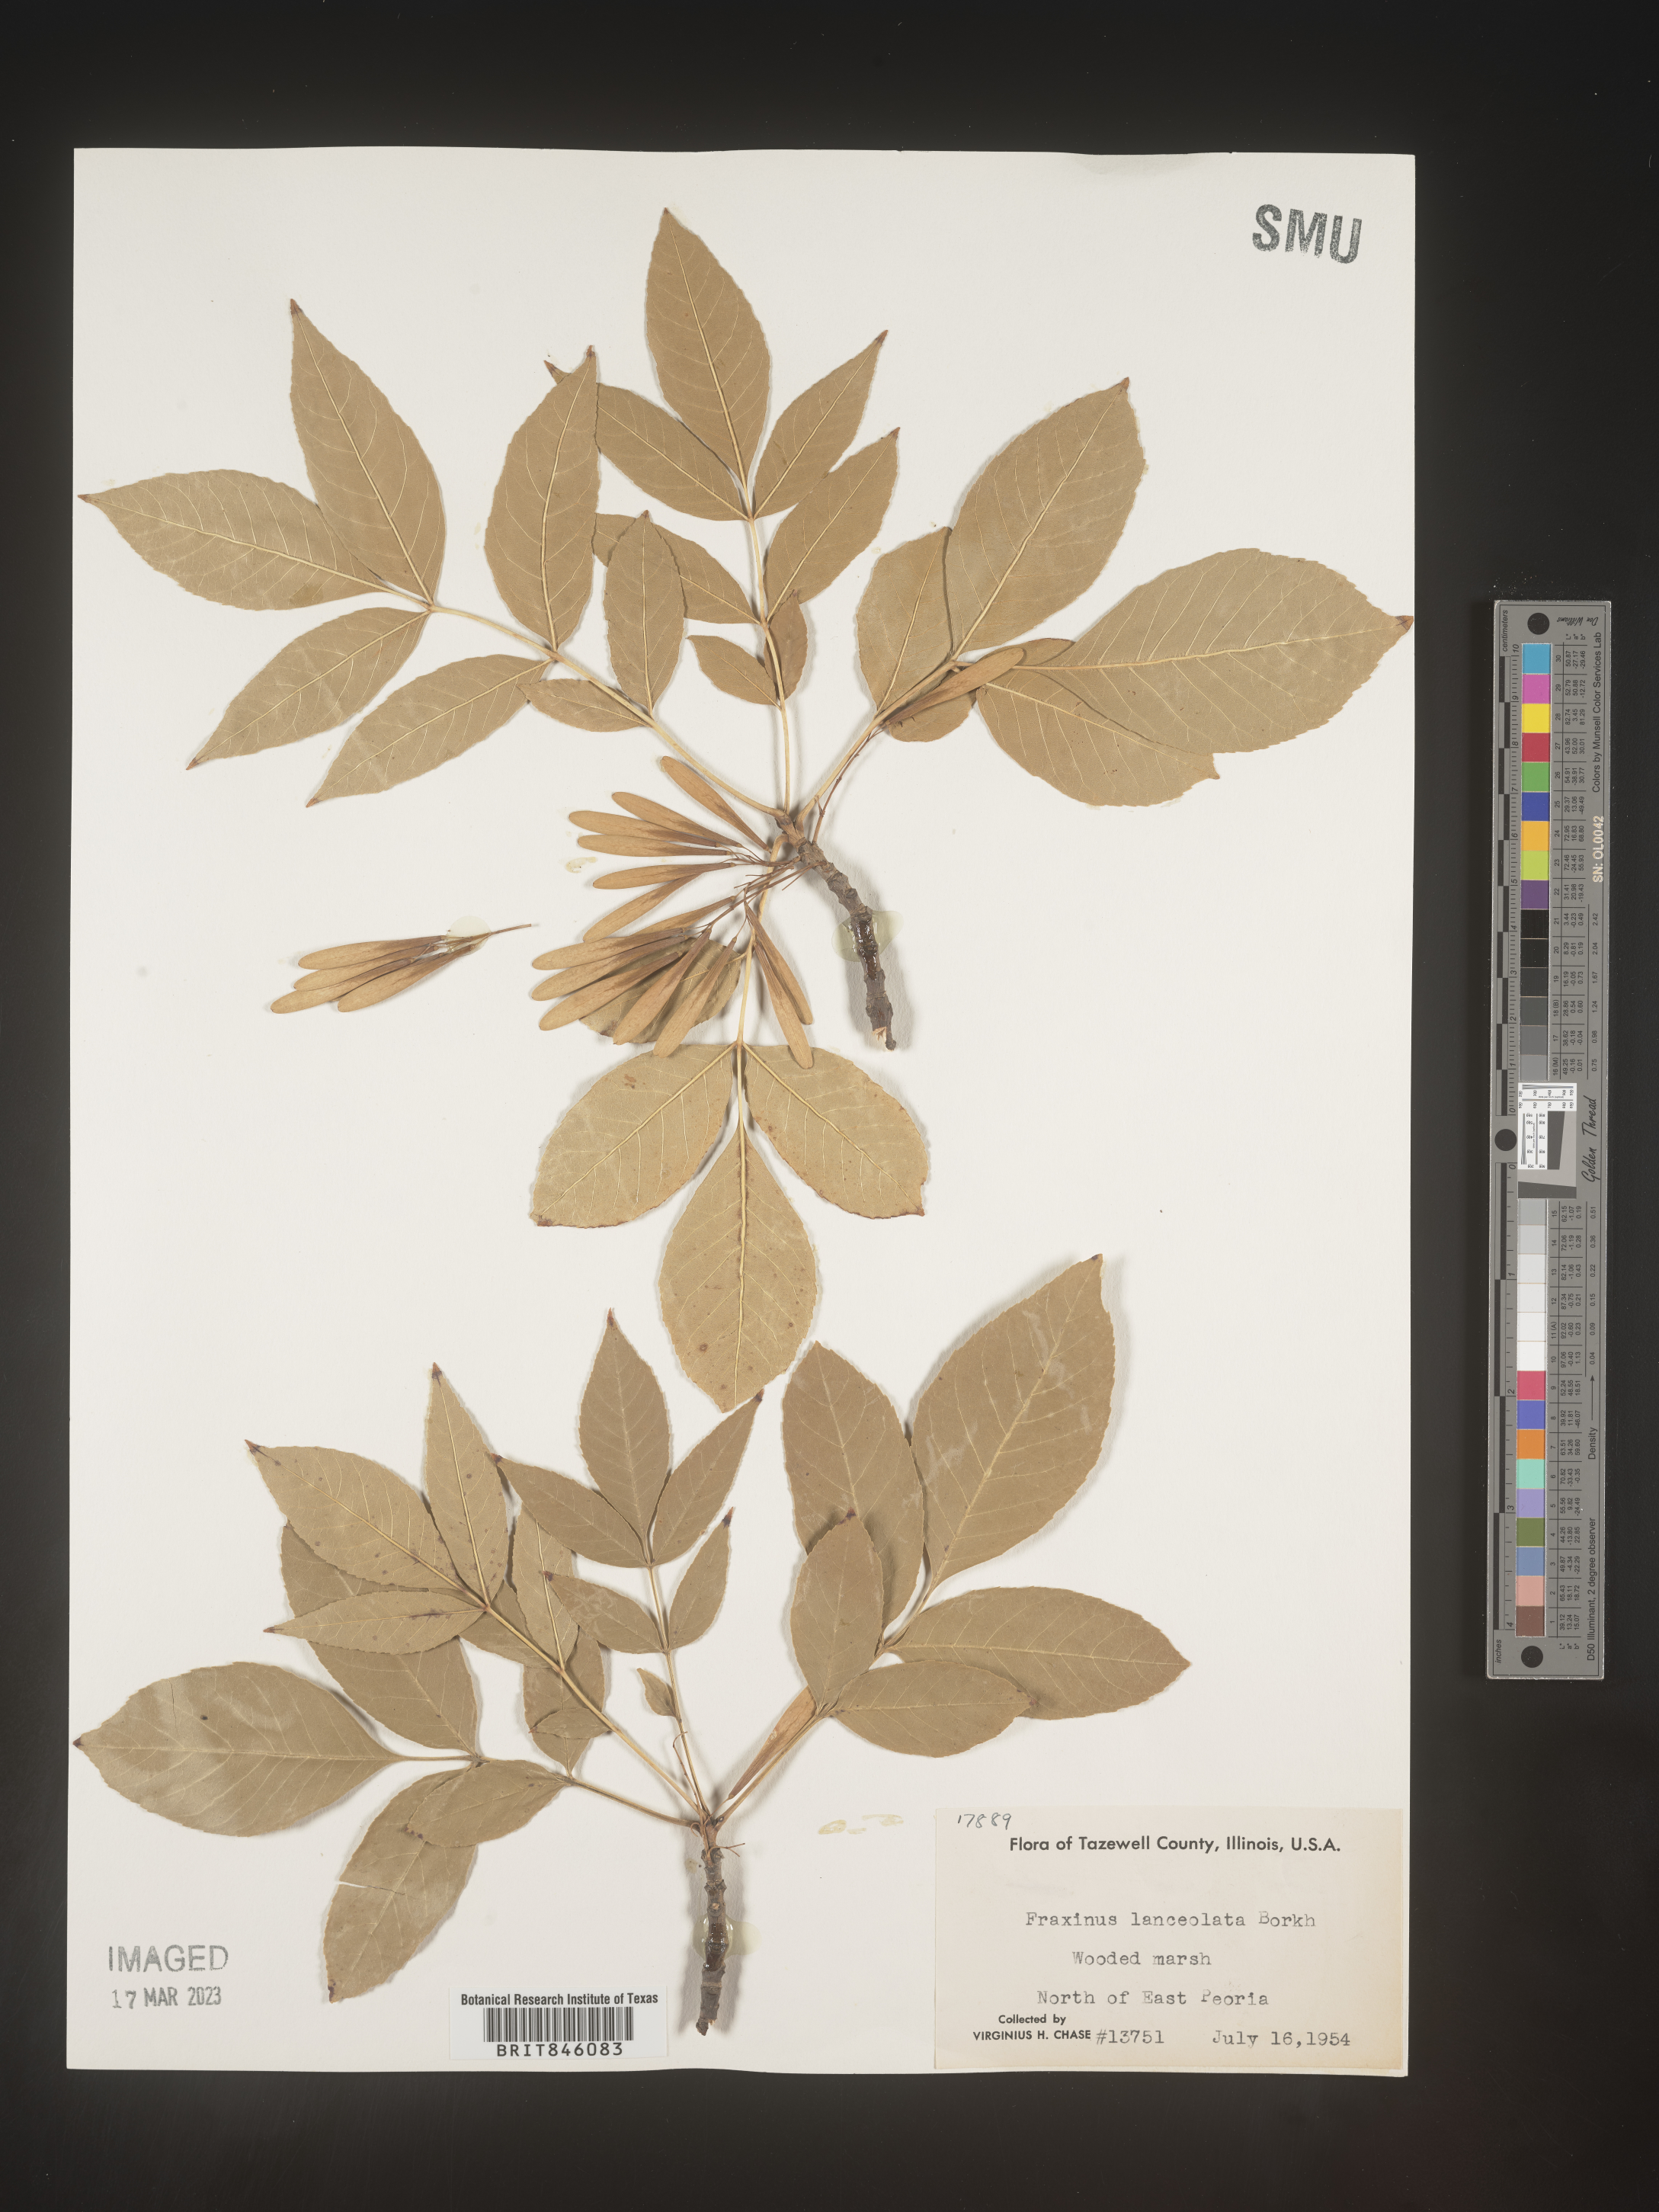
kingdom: Plantae
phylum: Tracheophyta
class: Magnoliopsida
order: Lamiales
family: Oleaceae
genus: Fraxinus
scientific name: Fraxinus pennsylvanica
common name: Green ash
